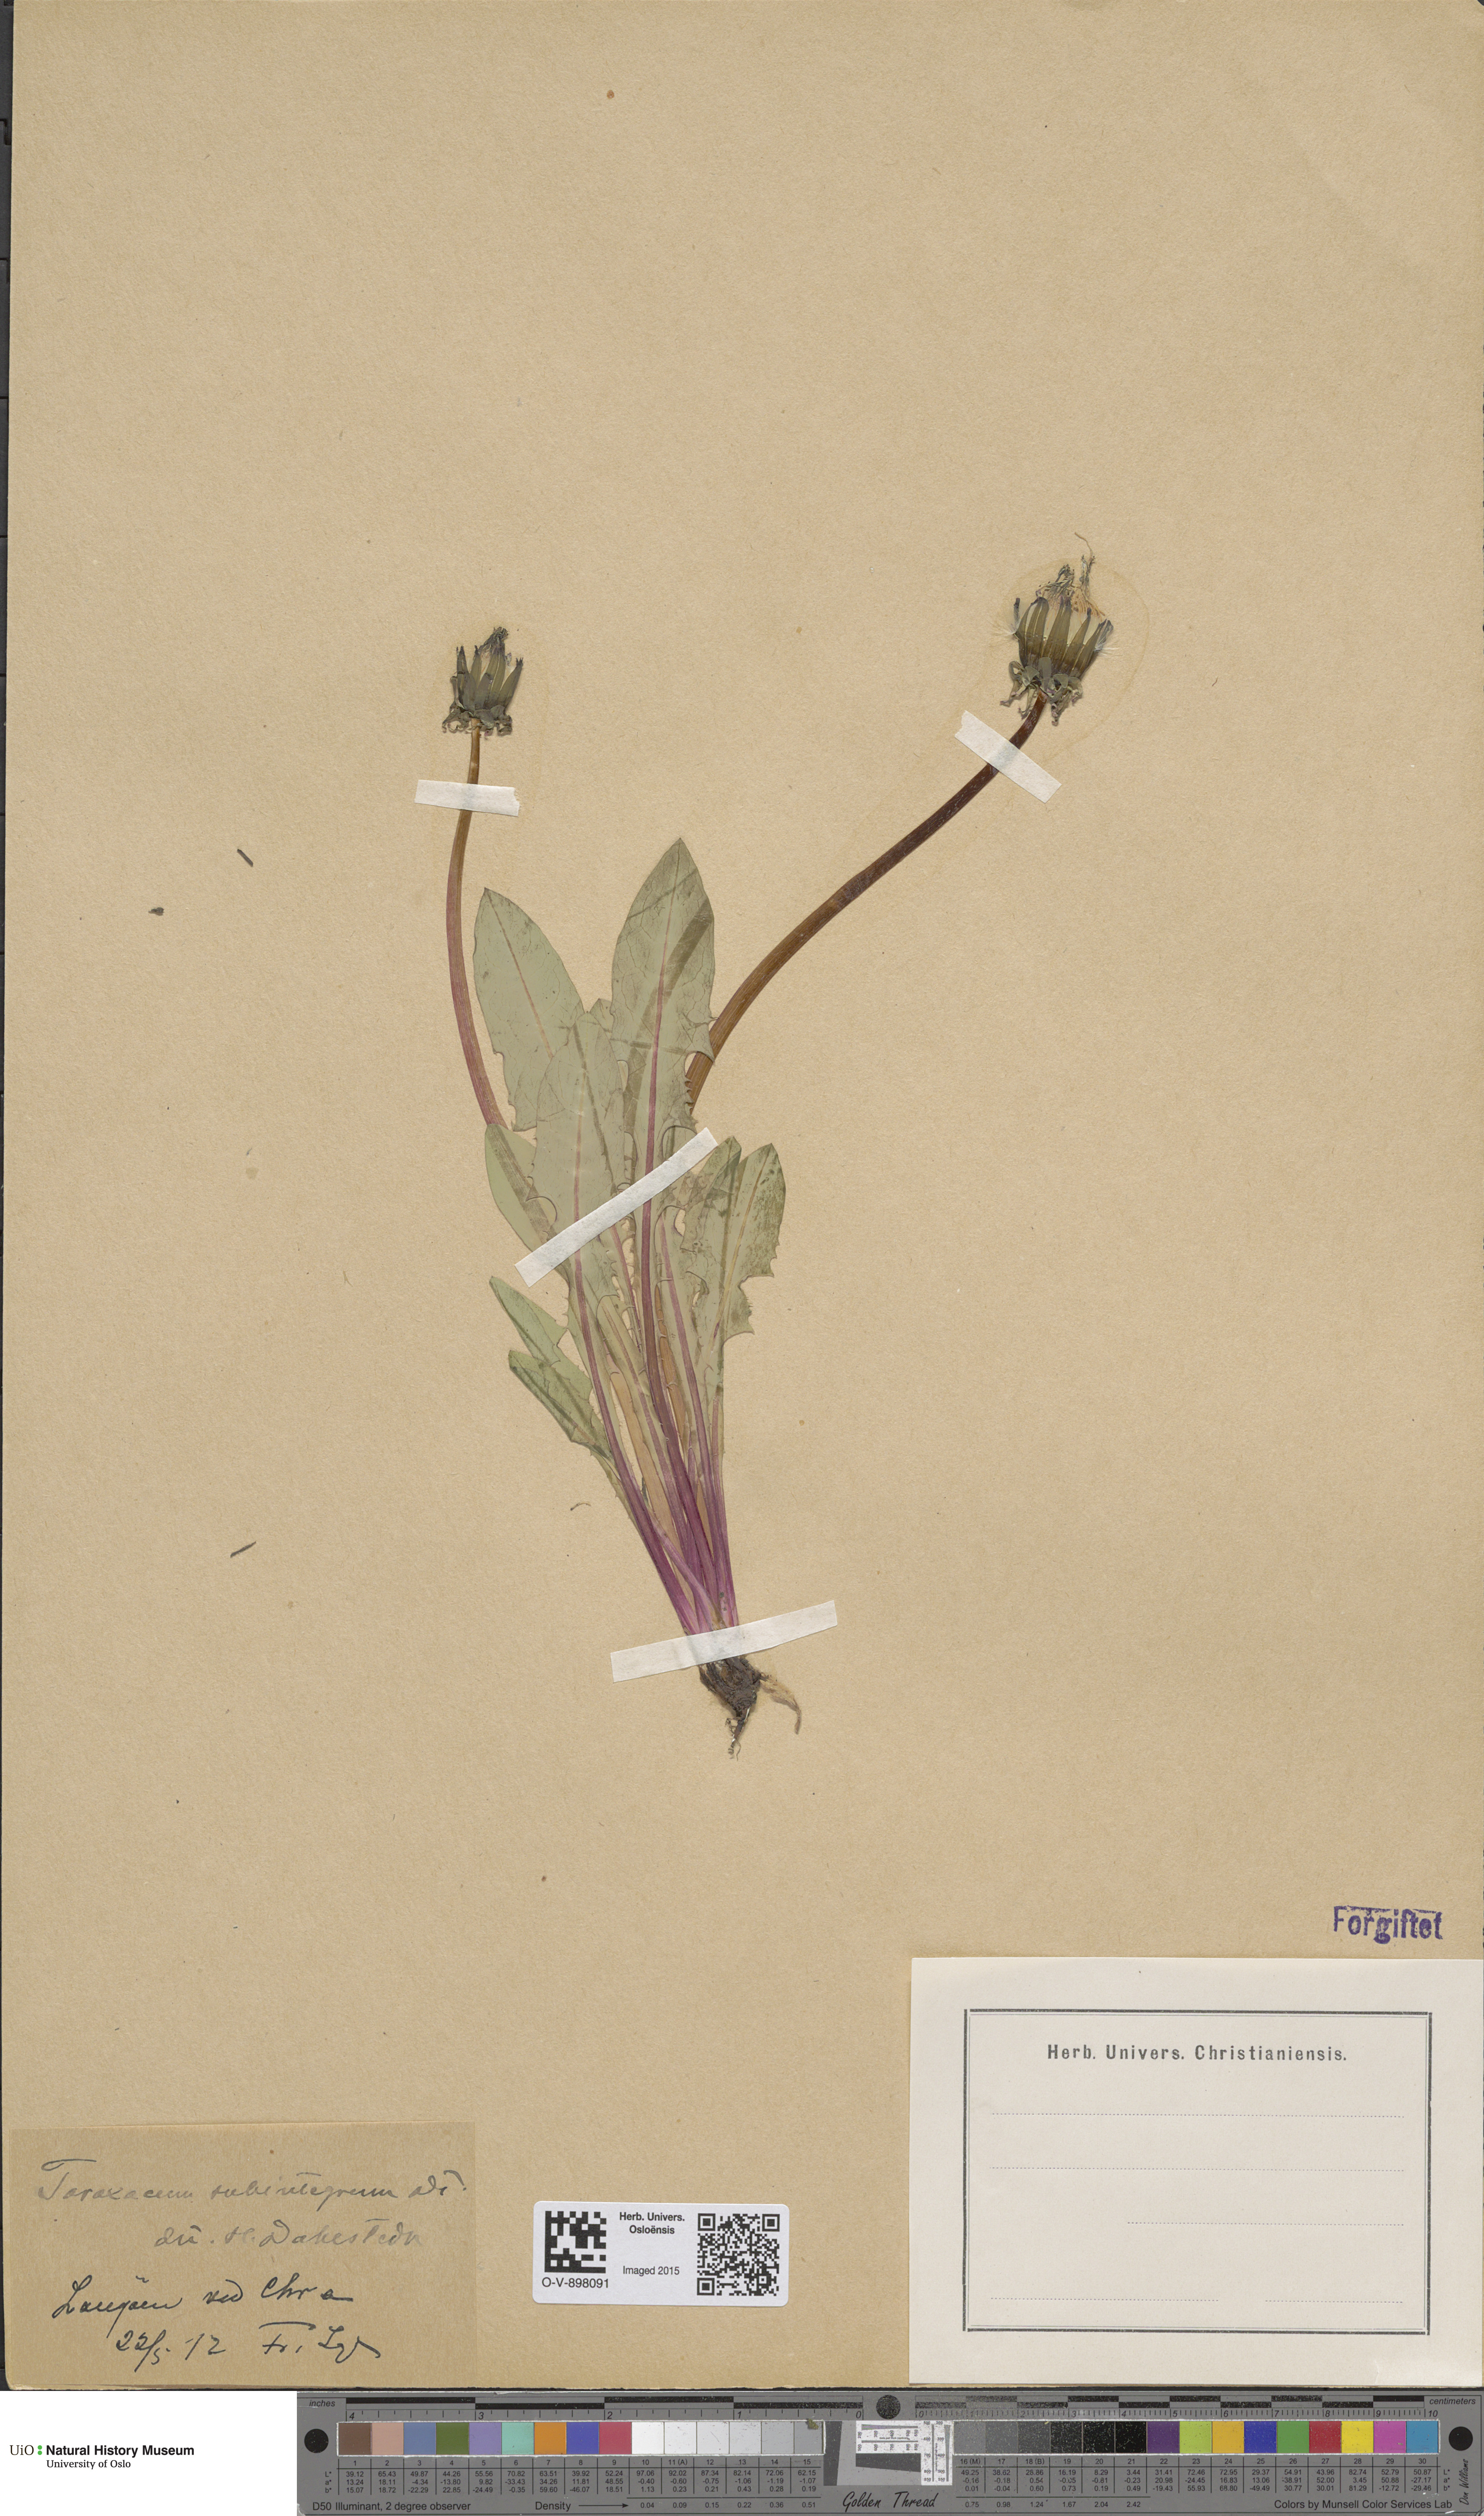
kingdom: Plantae
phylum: Tracheophyta
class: Magnoliopsida
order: Asterales
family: Asteraceae
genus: Taraxacum
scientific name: Taraxacum subintegrum
